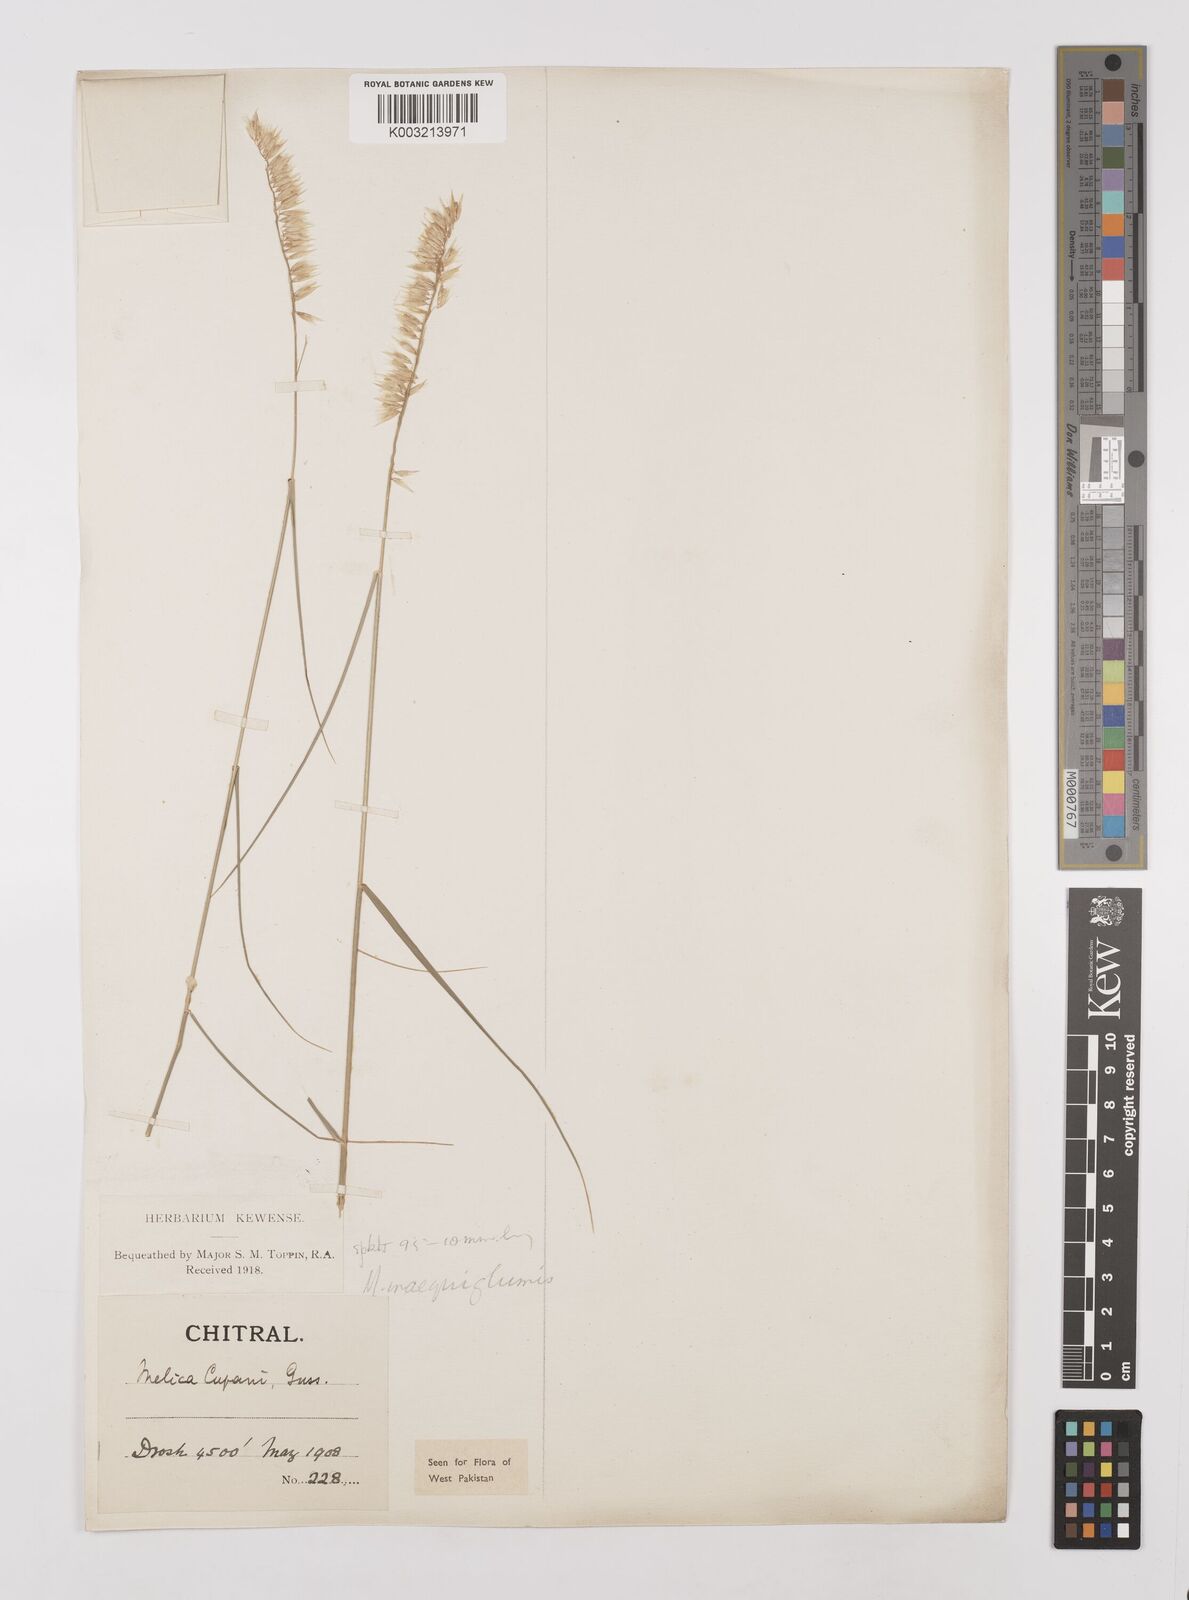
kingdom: Plantae
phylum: Tracheophyta
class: Liliopsida
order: Poales
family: Poaceae
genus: Melica
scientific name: Melica persica
